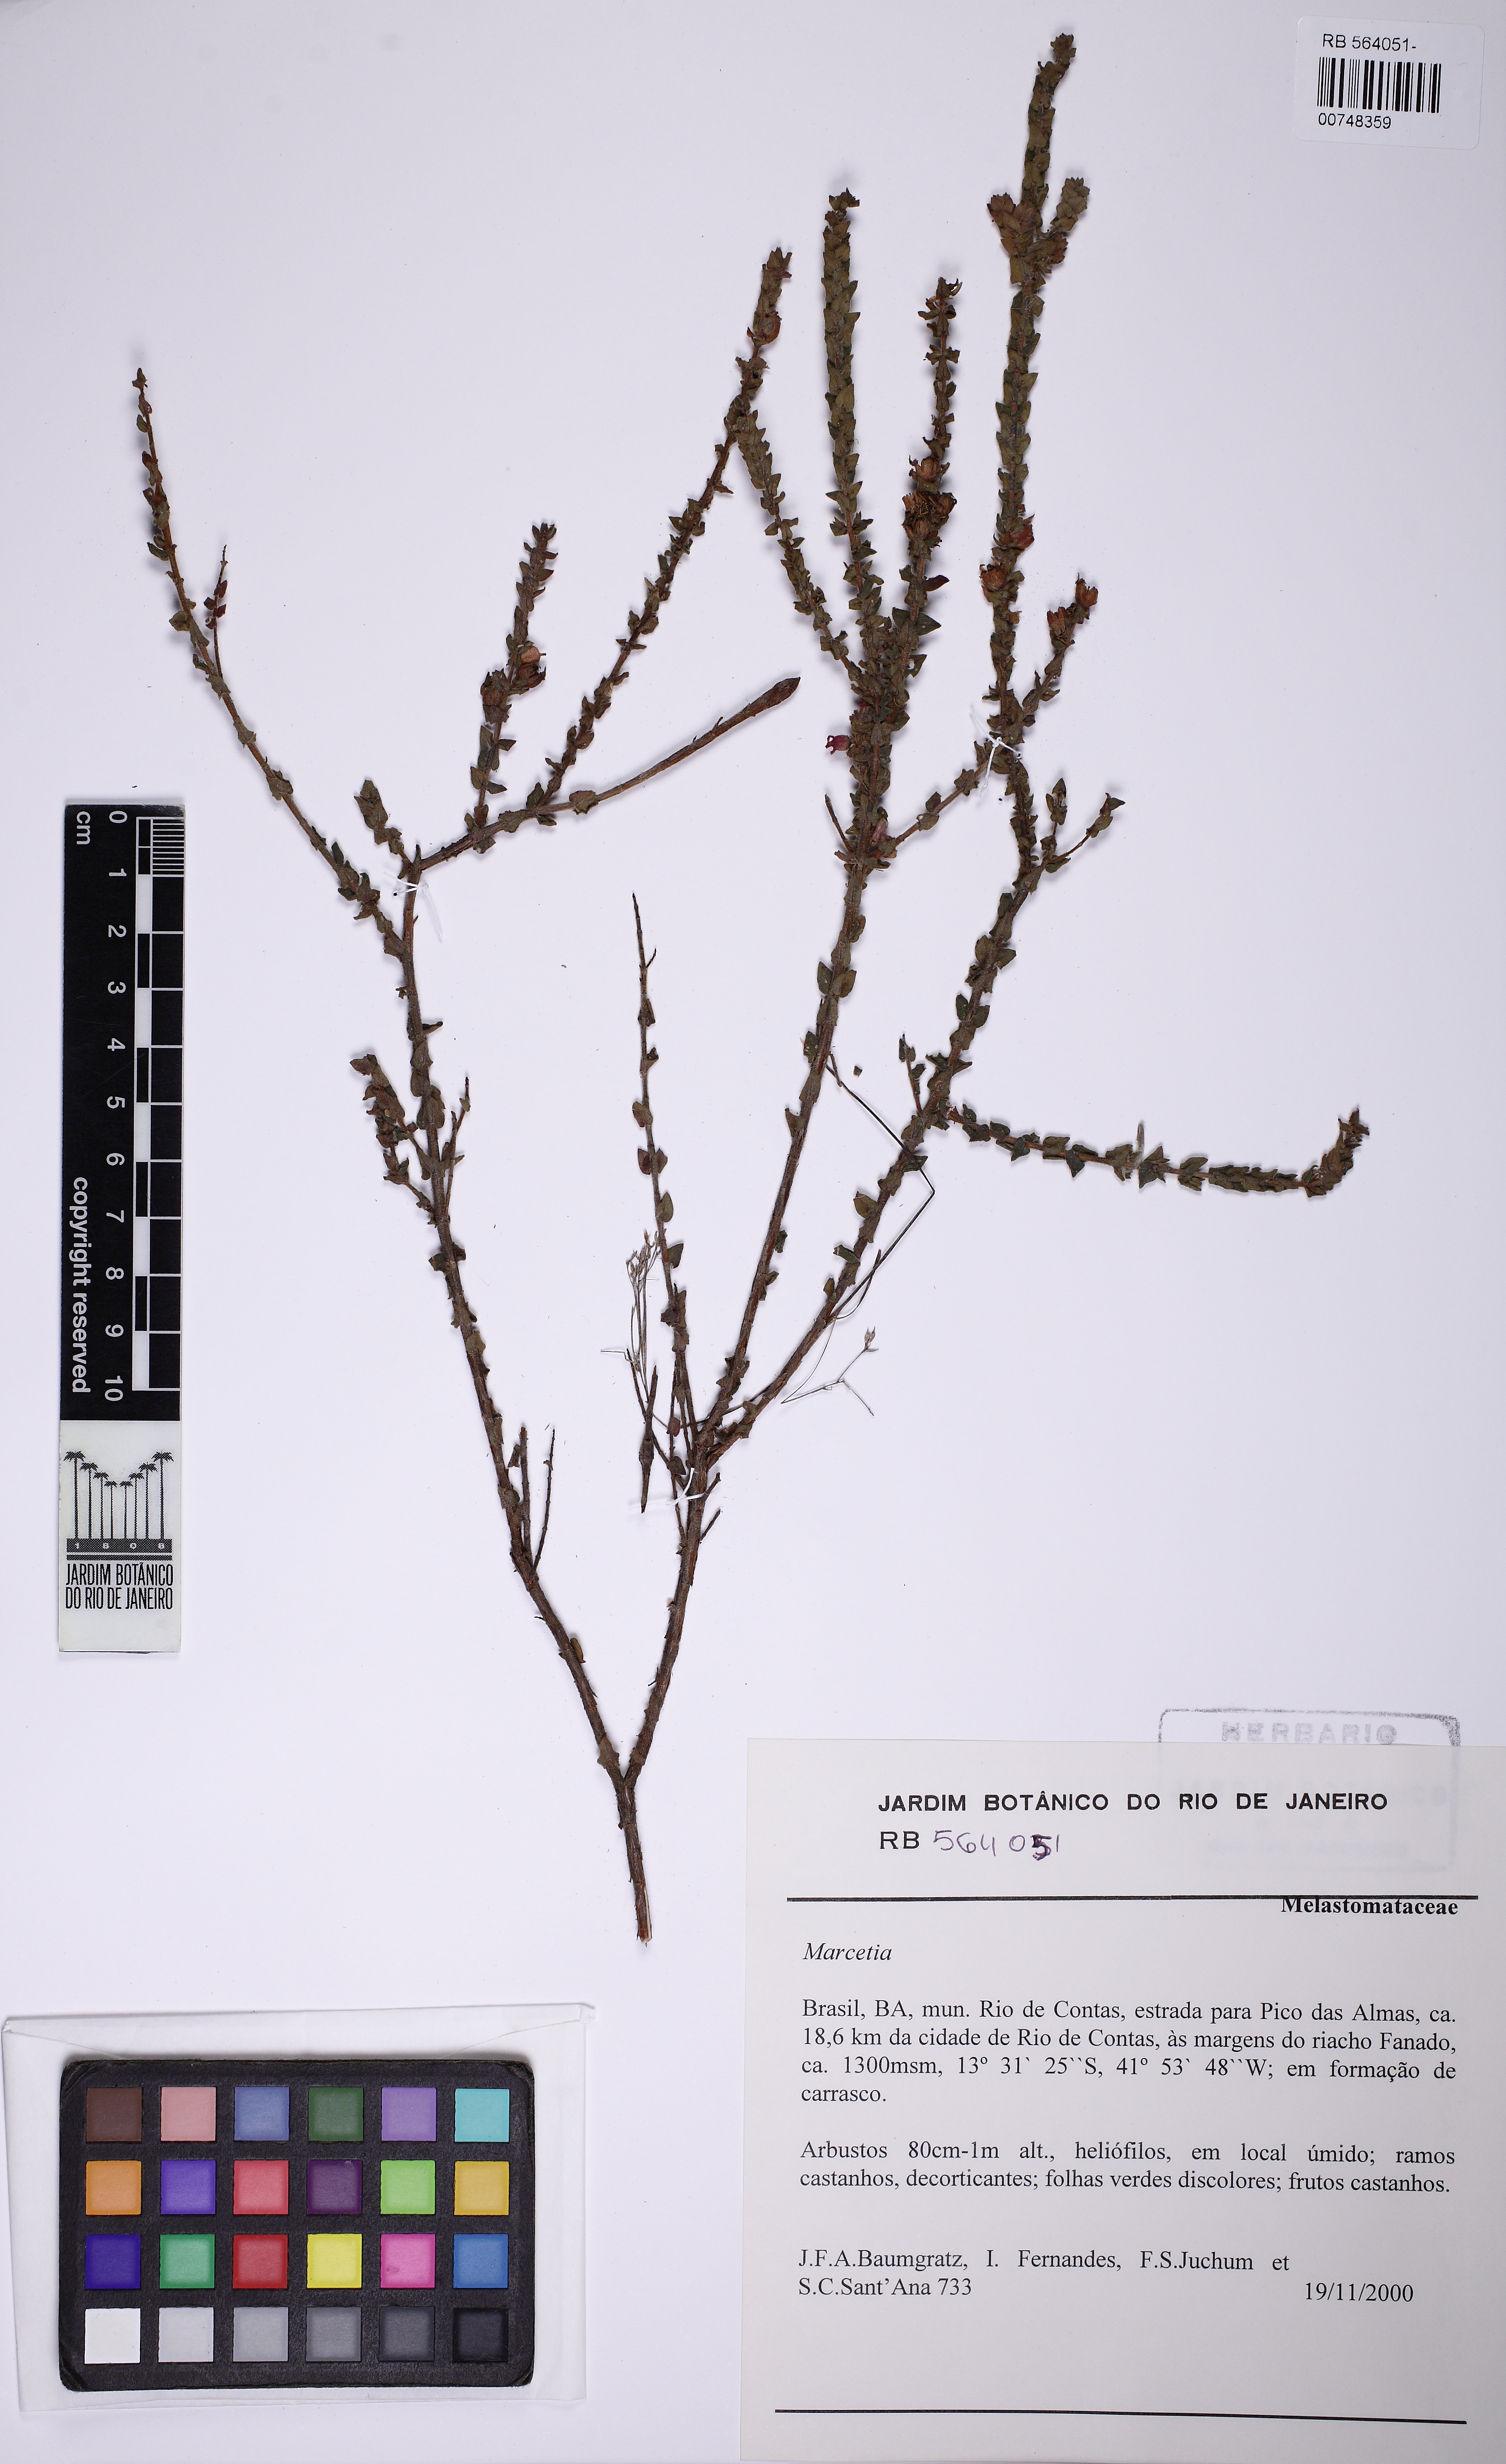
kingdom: Plantae
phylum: Tracheophyta
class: Magnoliopsida
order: Myrtales
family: Melastomataceae
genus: Marcetia
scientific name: Marcetia
